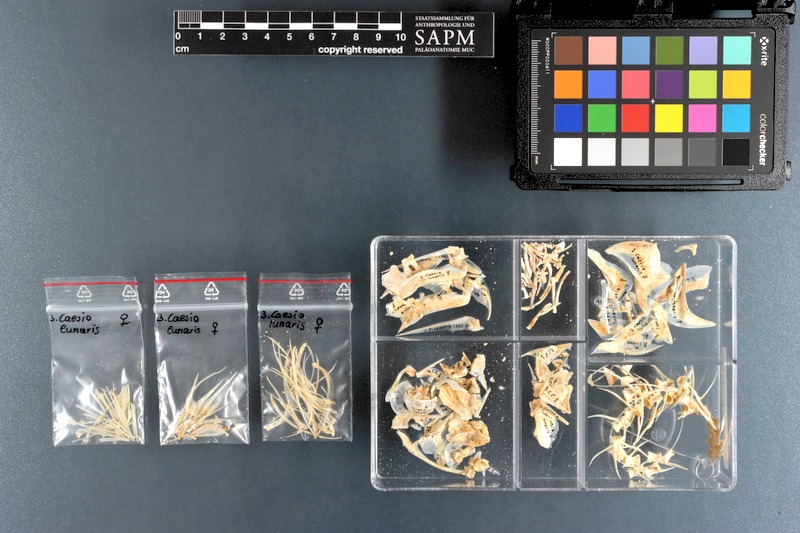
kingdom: Animalia
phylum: Chordata
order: Perciformes
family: Caesionidae
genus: Caesio
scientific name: Caesio lunaris
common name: Blue fusilier
